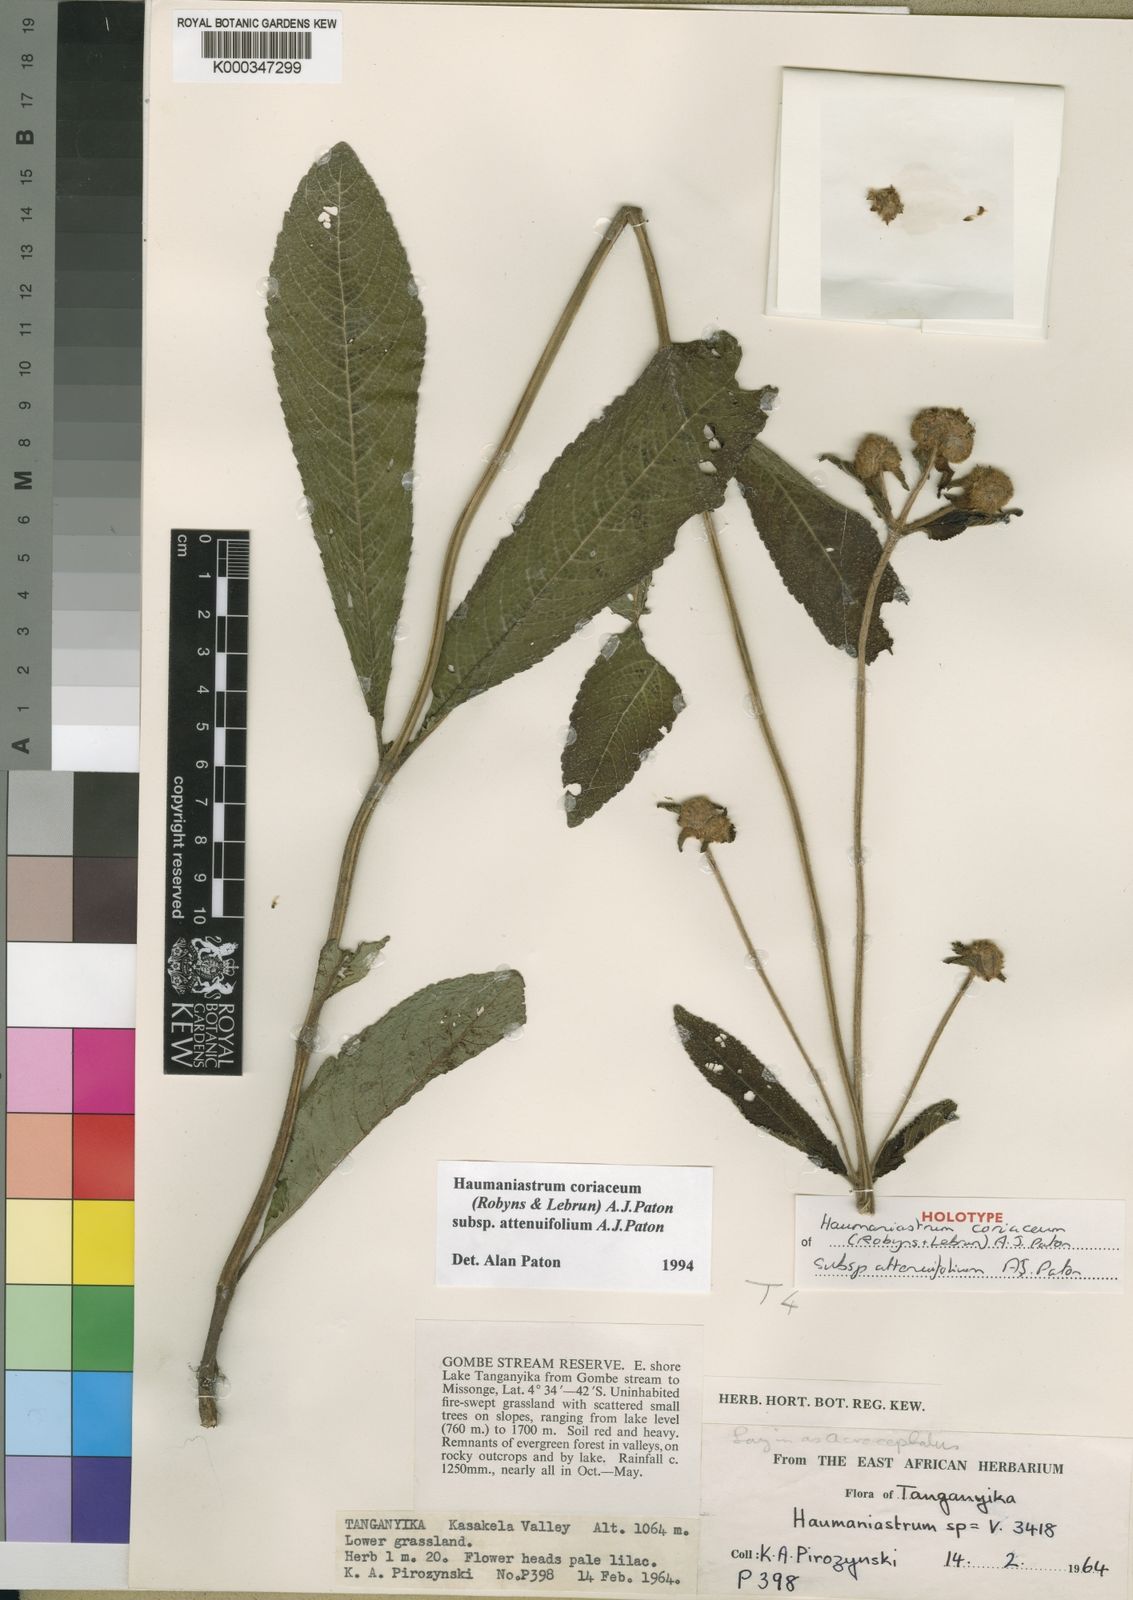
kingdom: Plantae
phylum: Tracheophyta
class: Magnoliopsida
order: Lamiales
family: Lamiaceae
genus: Haumaniastrum
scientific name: Haumaniastrum coriaceum
